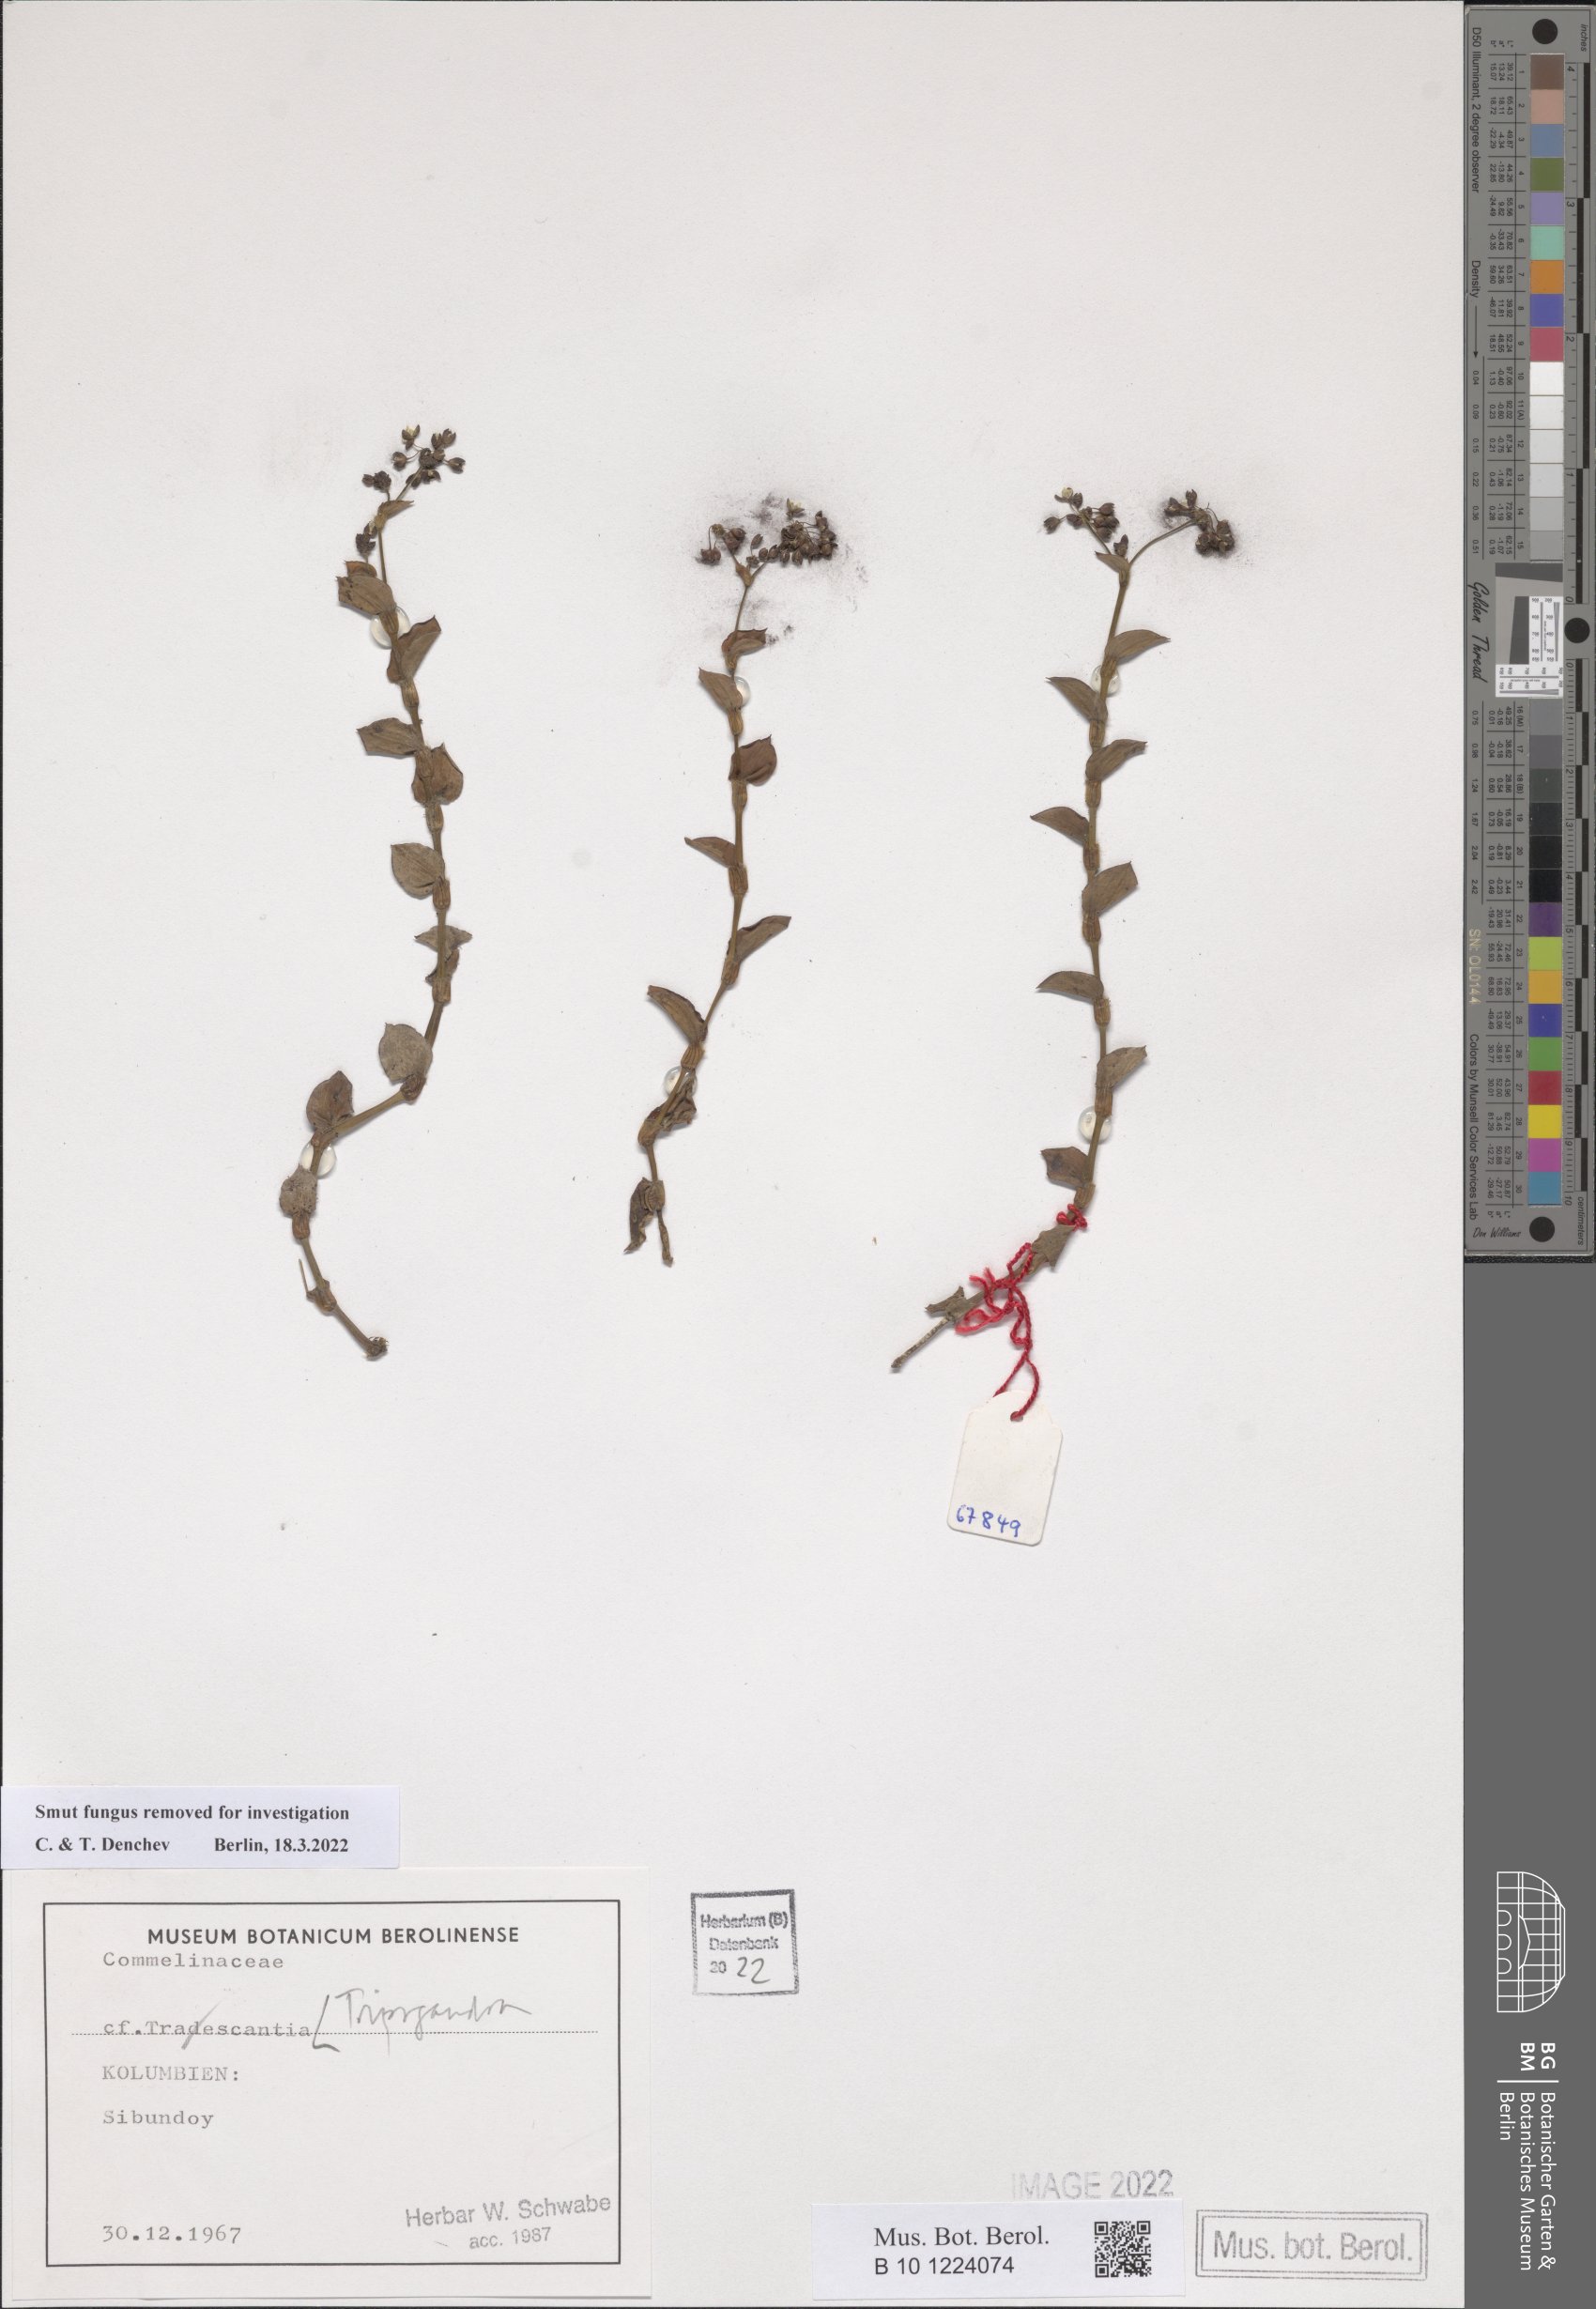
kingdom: Plantae
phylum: Tracheophyta
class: Liliopsida
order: Commelinales
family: Commelinaceae
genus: Callisia
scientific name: Callisia
